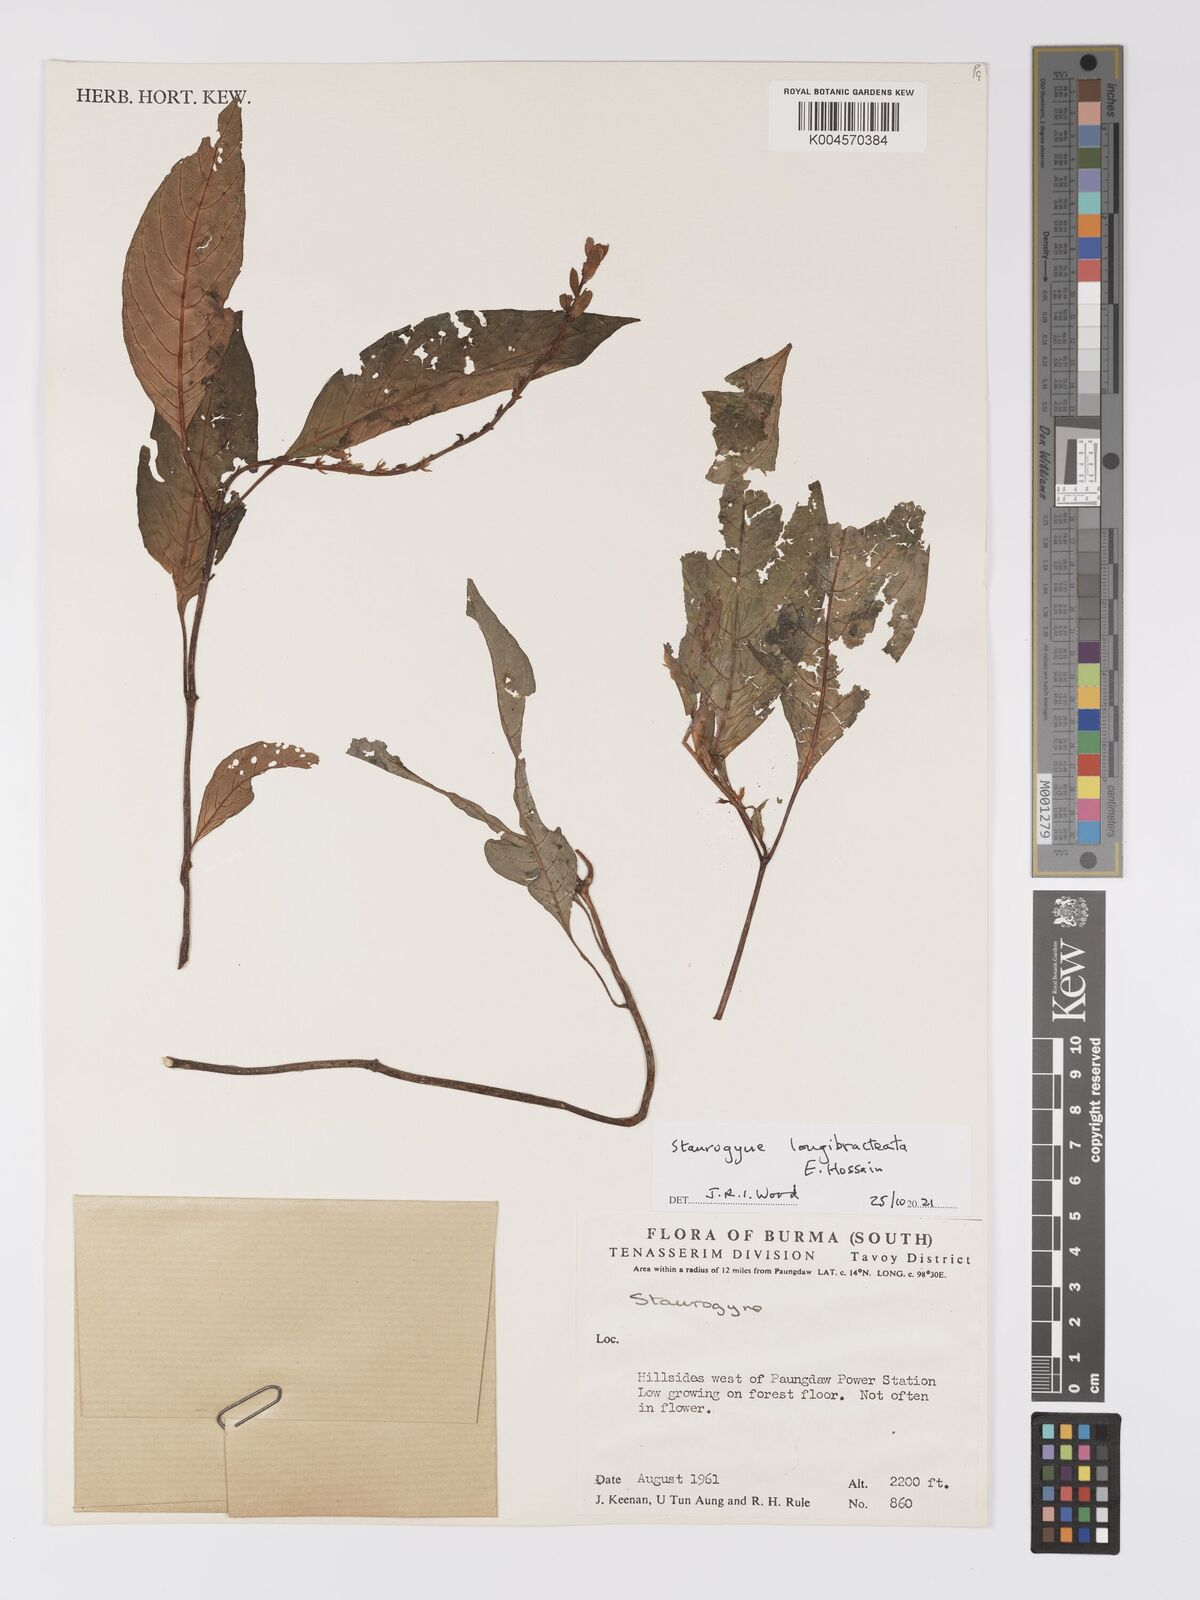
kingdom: Plantae
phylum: Tracheophyta
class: Magnoliopsida
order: Lamiales
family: Acanthaceae
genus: Staurogyne
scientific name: Staurogyne longibracteata
